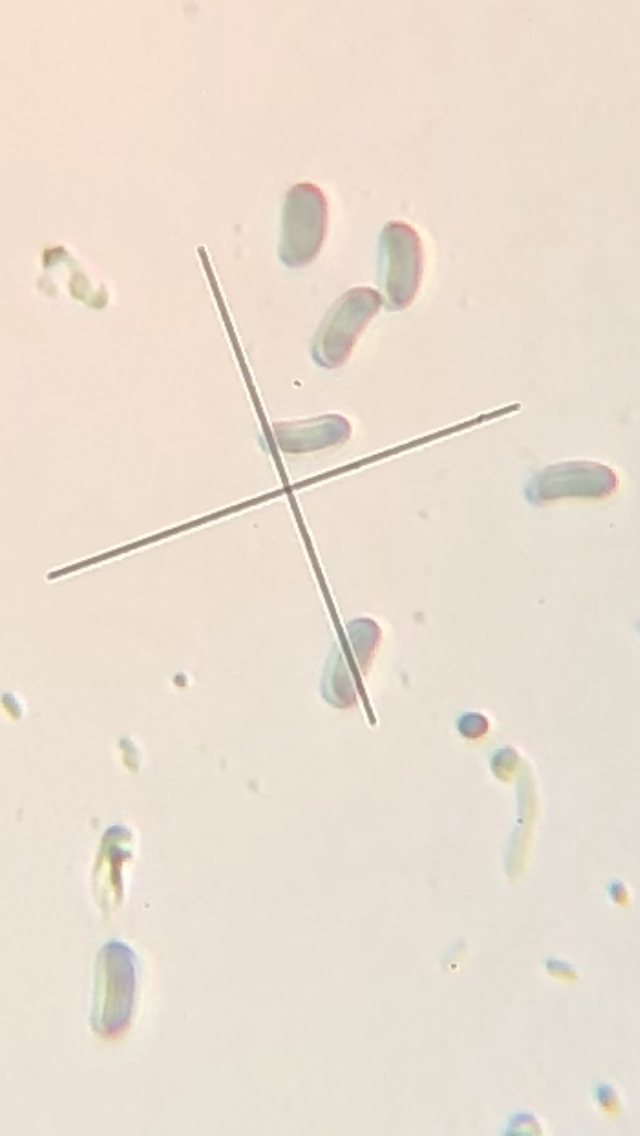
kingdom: Fungi
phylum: Basidiomycota
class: Agaricomycetes
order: Polyporales
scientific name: Polyporales
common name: poresvampordenen
